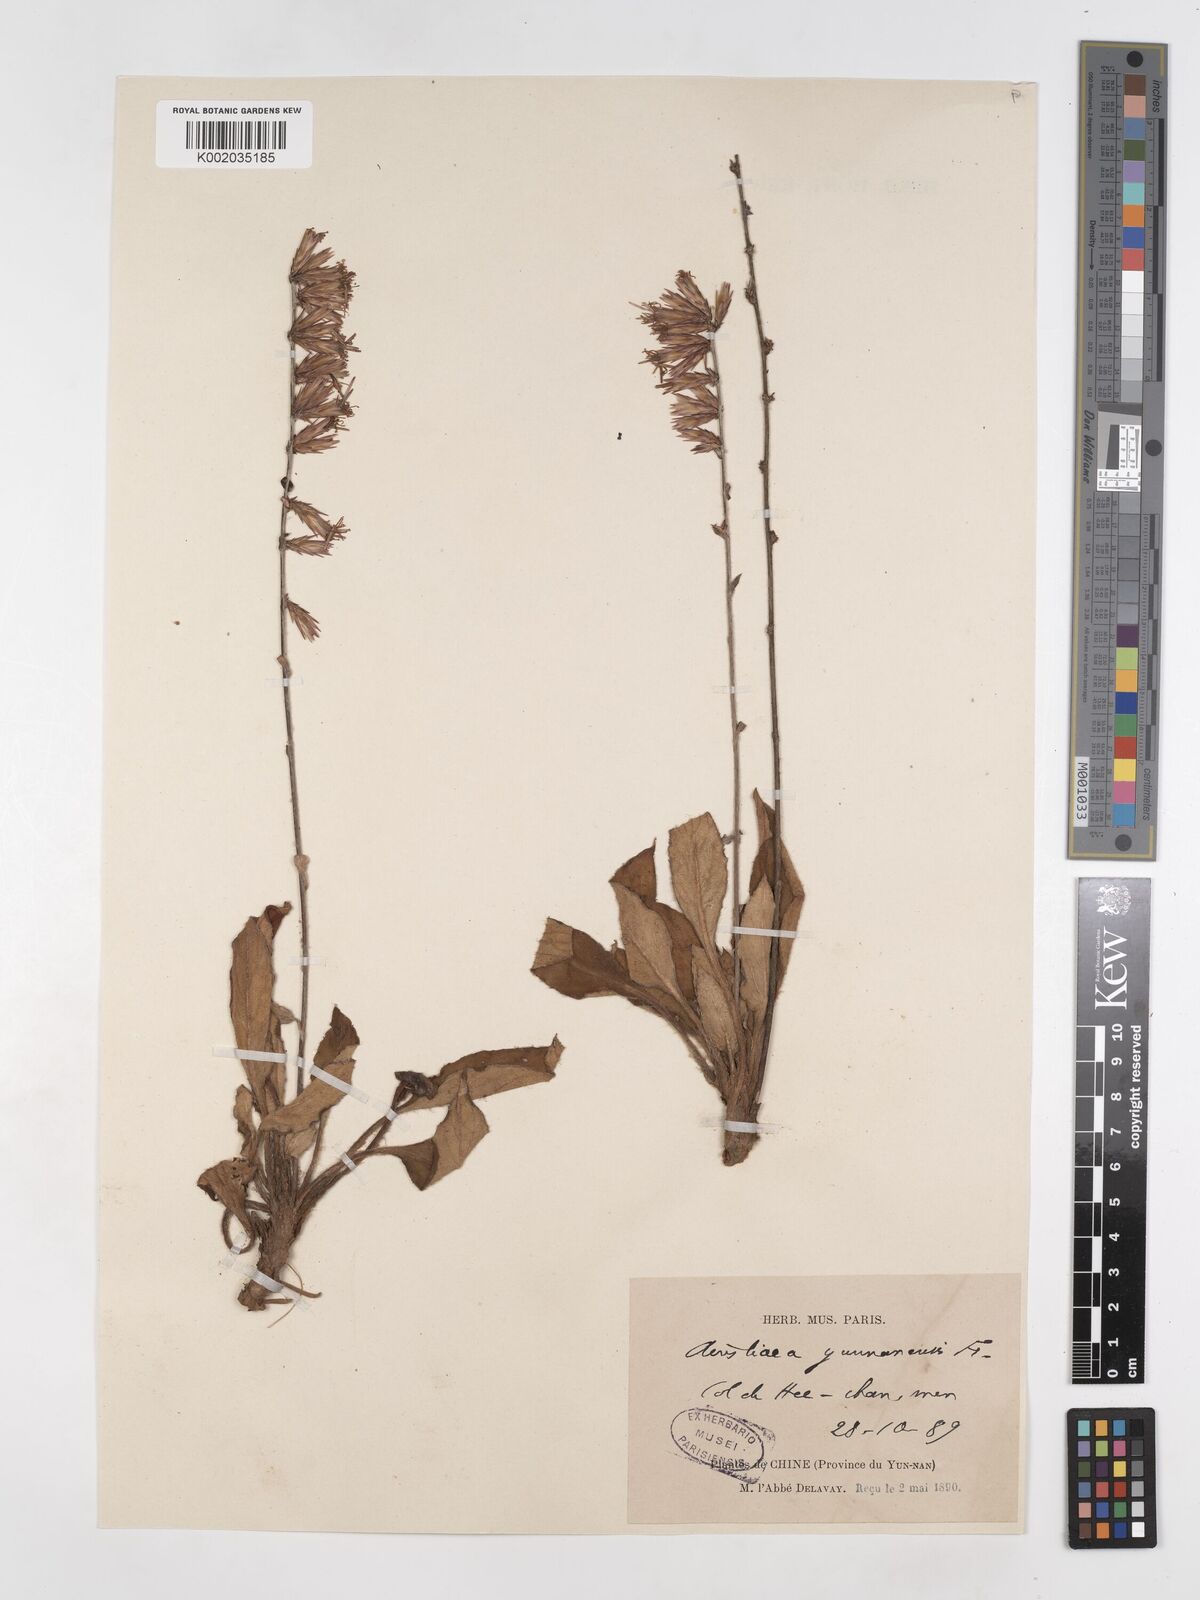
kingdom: Plantae
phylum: Tracheophyta
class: Magnoliopsida
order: Asterales
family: Asteraceae
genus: Ainsliaea
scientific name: Ainsliaea yunnanensis
